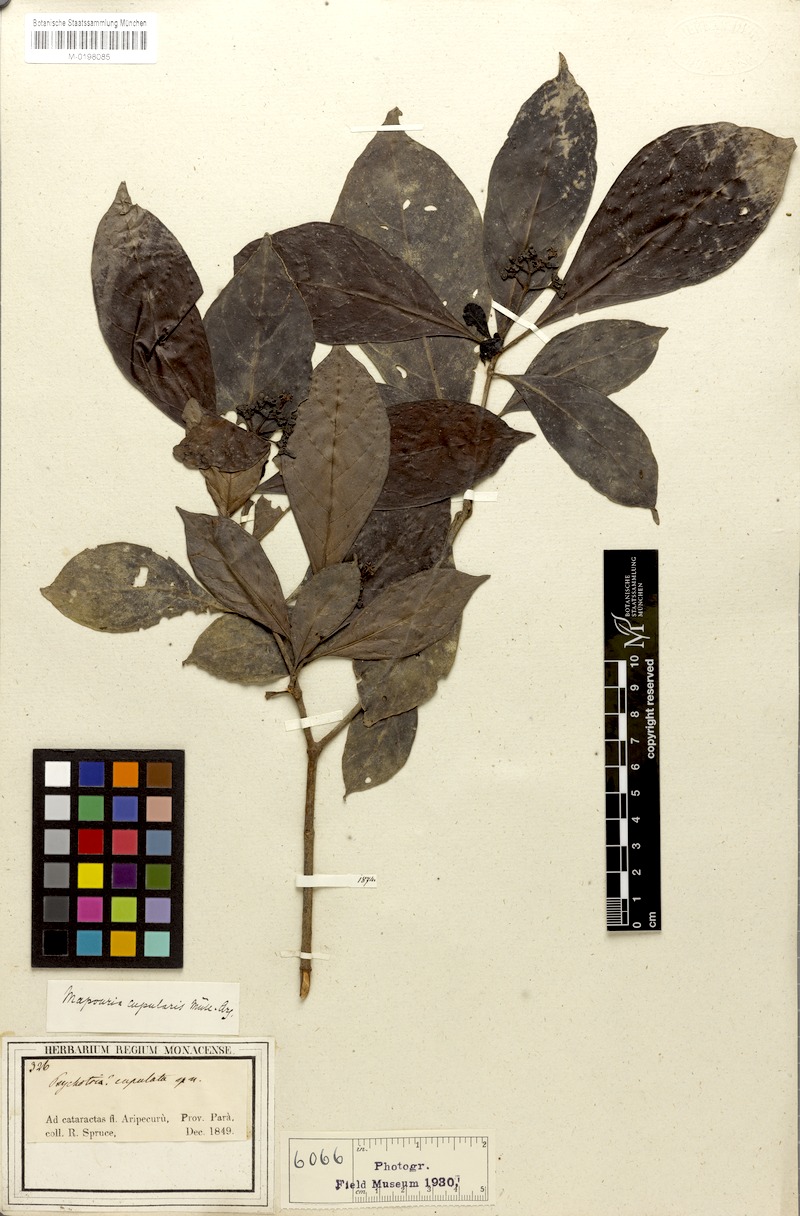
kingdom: Plantae
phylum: Tracheophyta
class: Magnoliopsida
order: Gentianales
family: Rubiaceae
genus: Psychotria
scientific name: Psychotria cupularis
